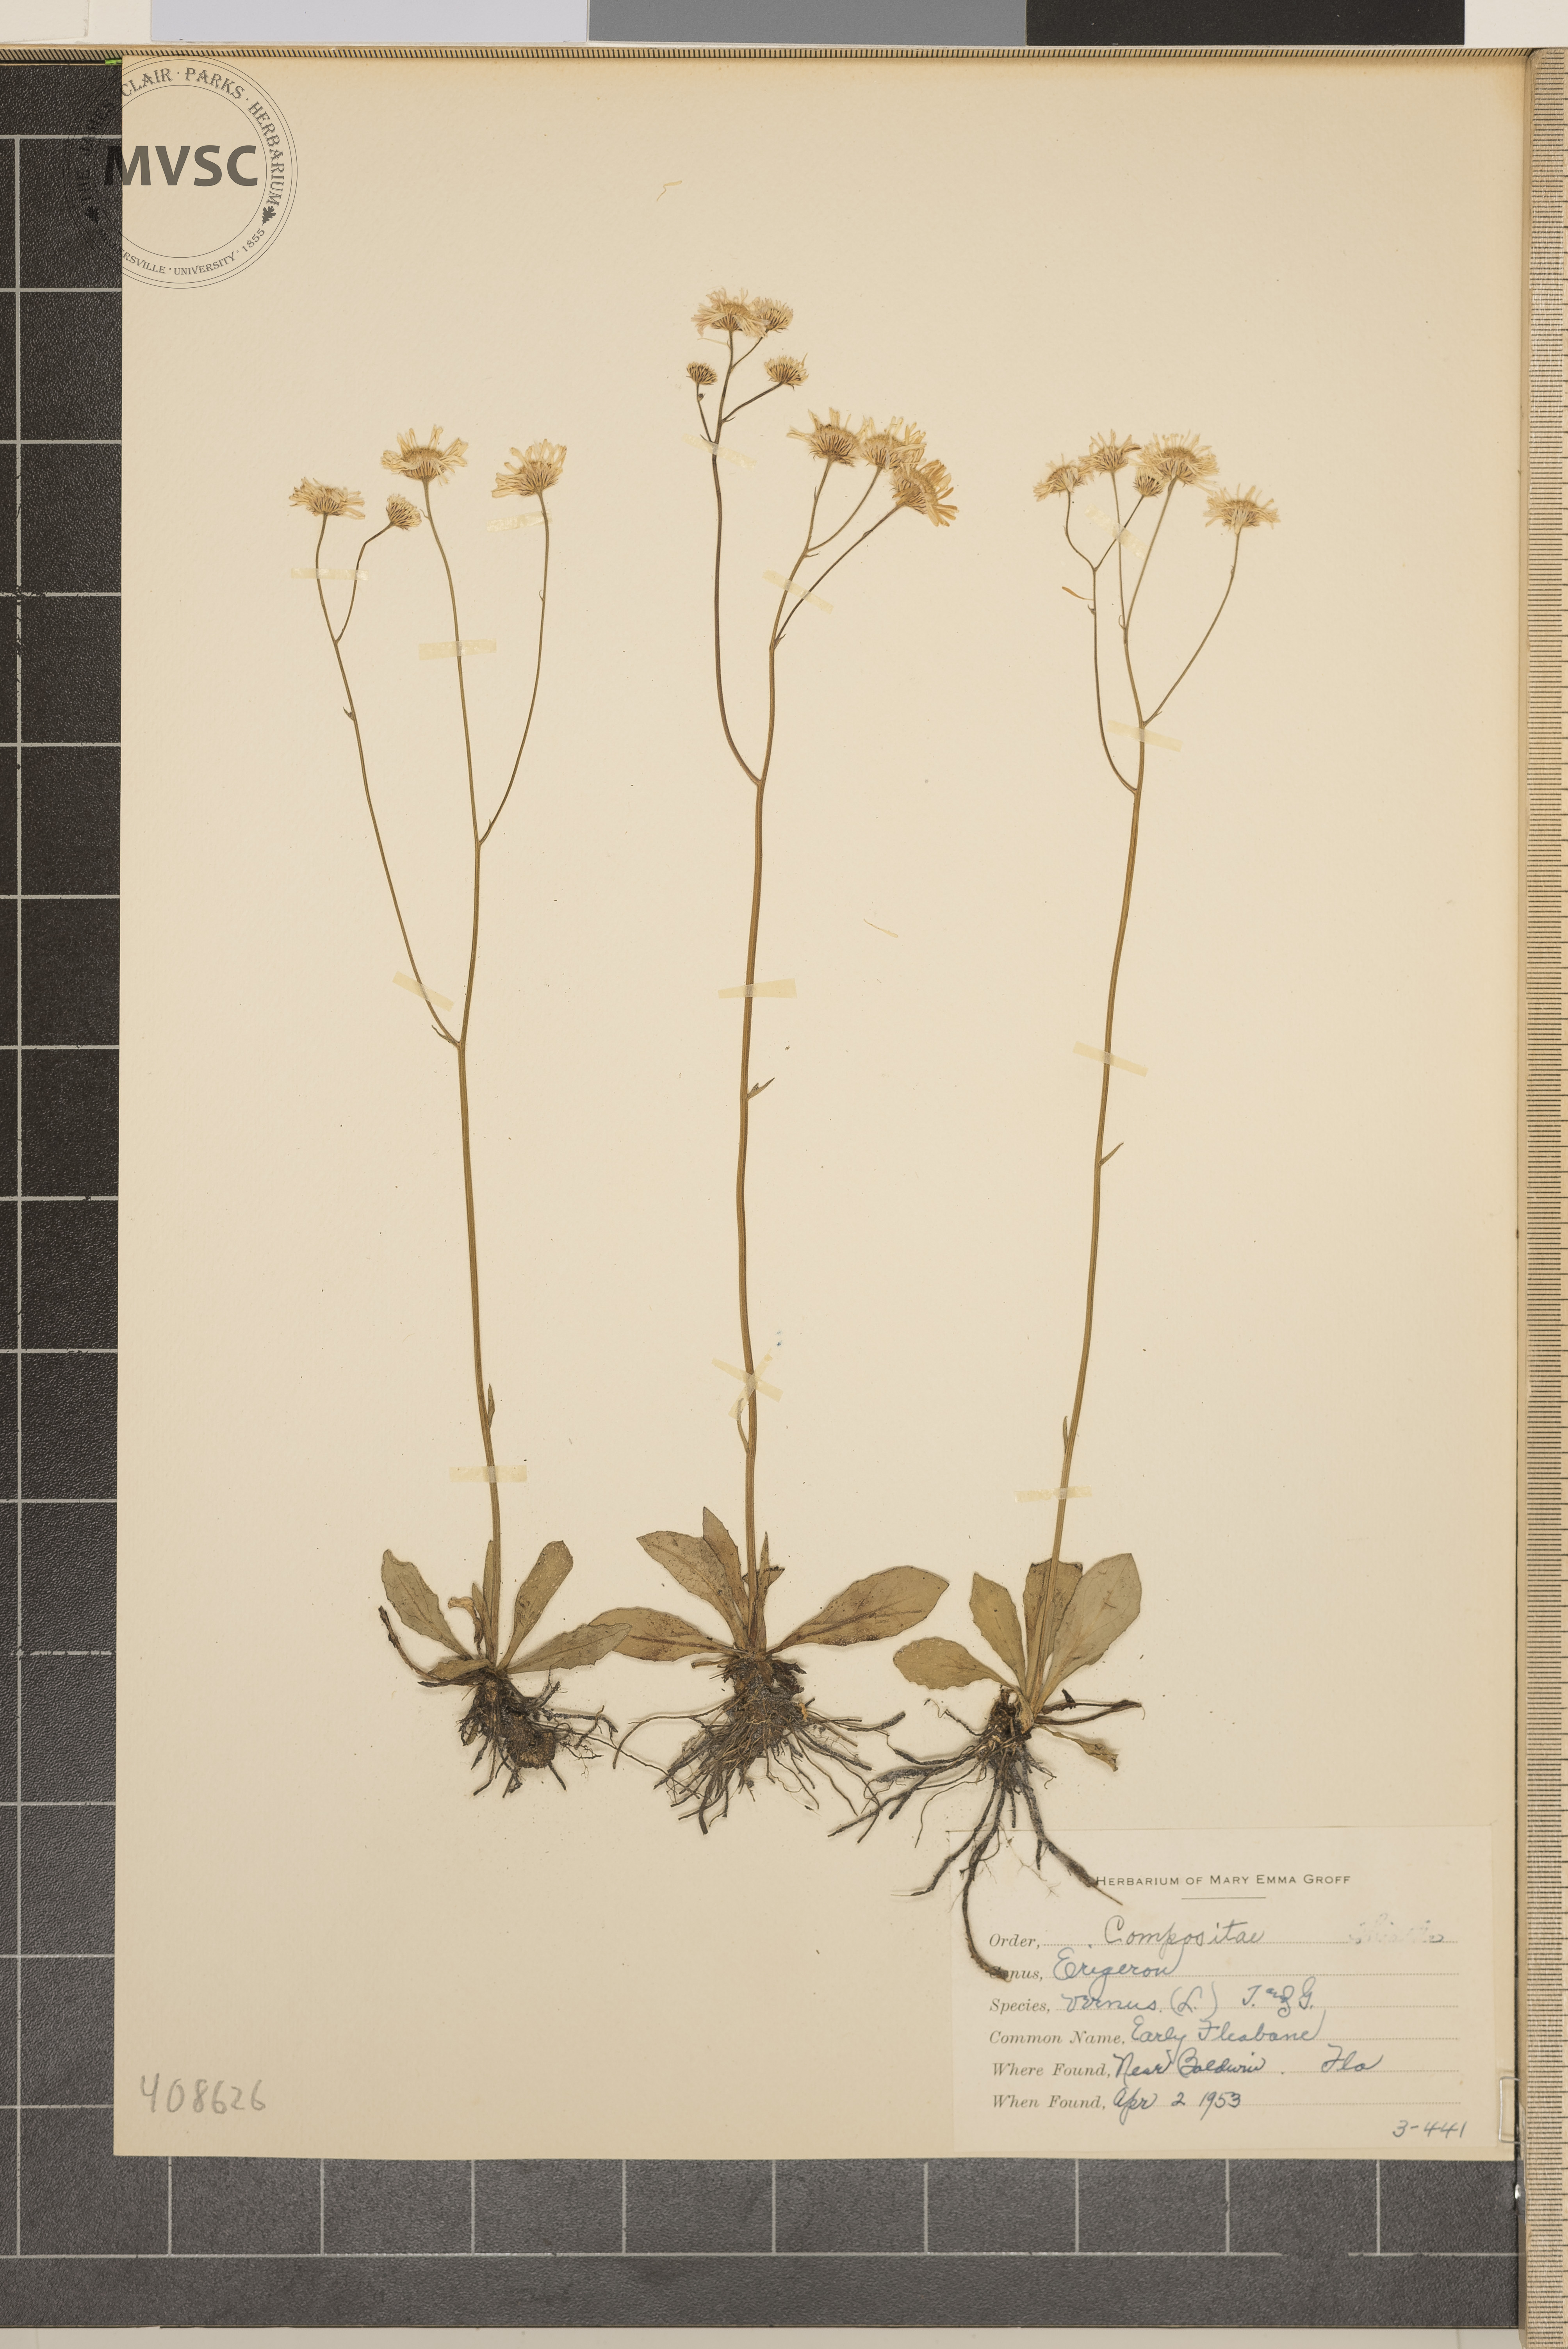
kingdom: Plantae
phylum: Tracheophyta
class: Magnoliopsida
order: Asterales
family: Asteraceae
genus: Erigeron
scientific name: Erigeron vernus
